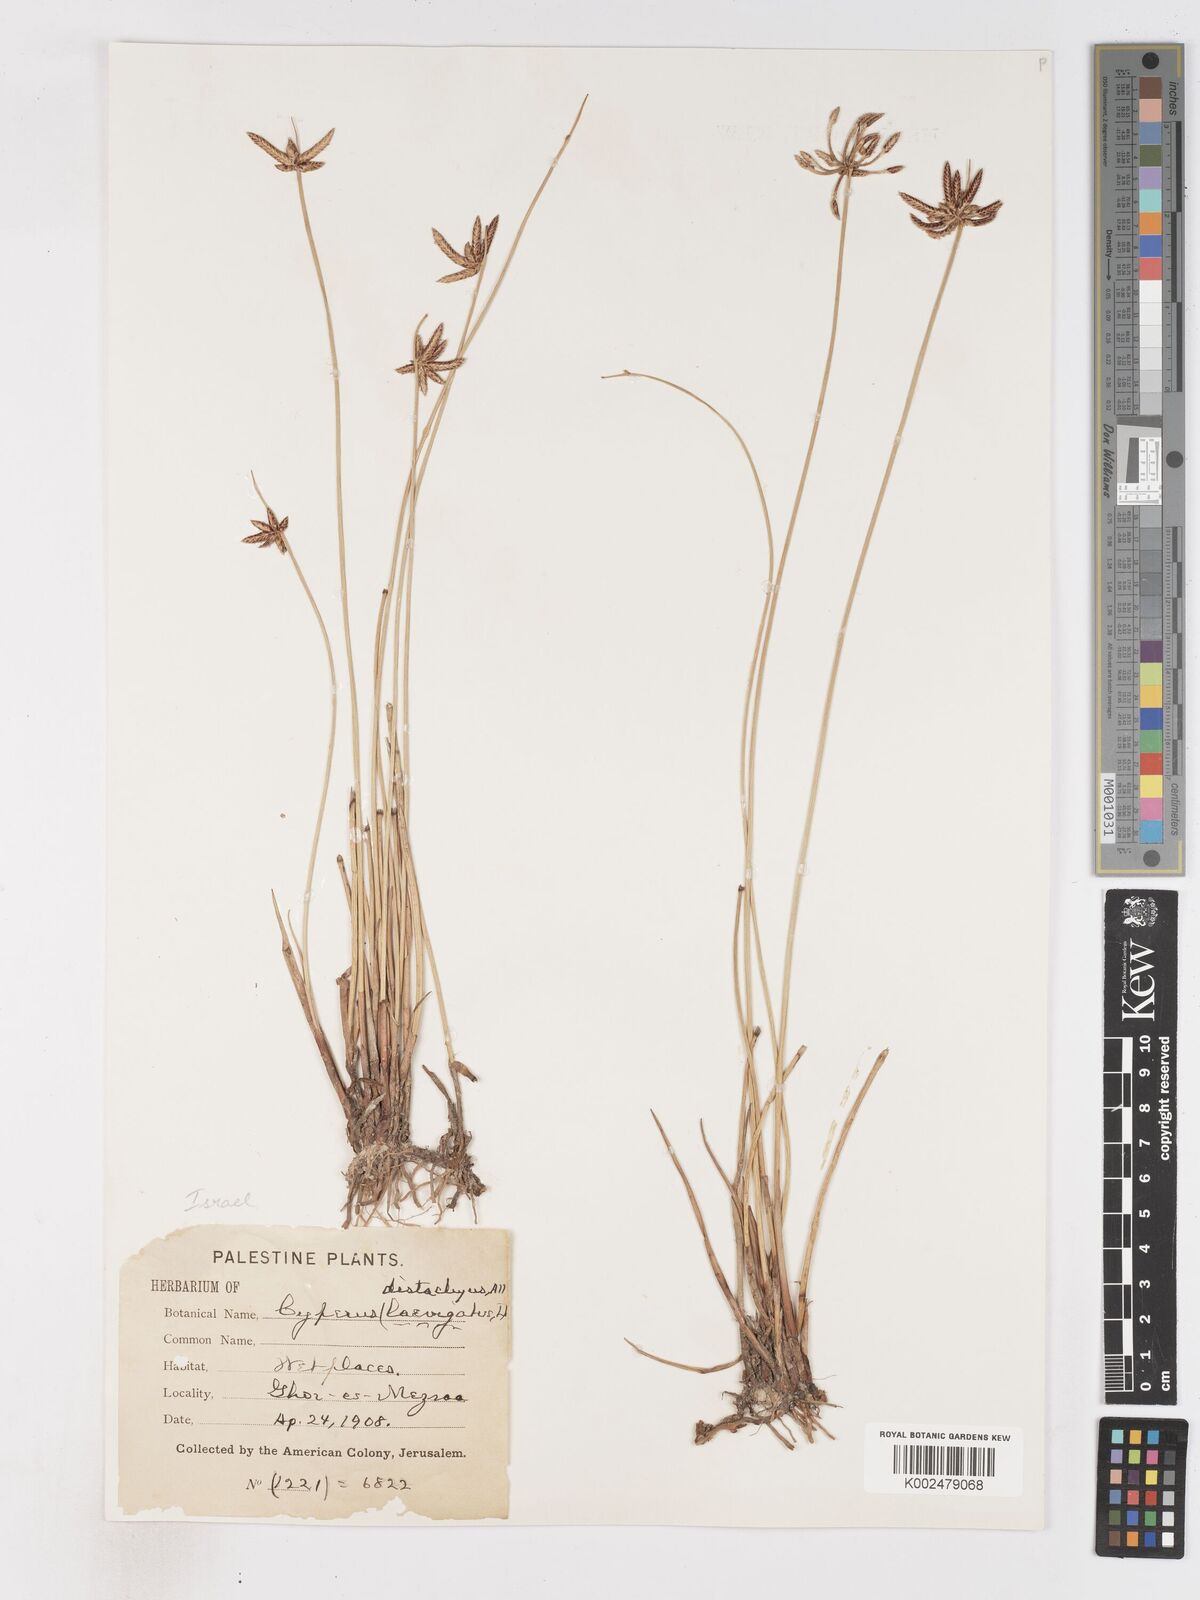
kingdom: Plantae
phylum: Tracheophyta
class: Liliopsida
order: Poales
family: Cyperaceae
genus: Cyperus
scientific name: Cyperus laevigatus
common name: Smooth flat sedge
